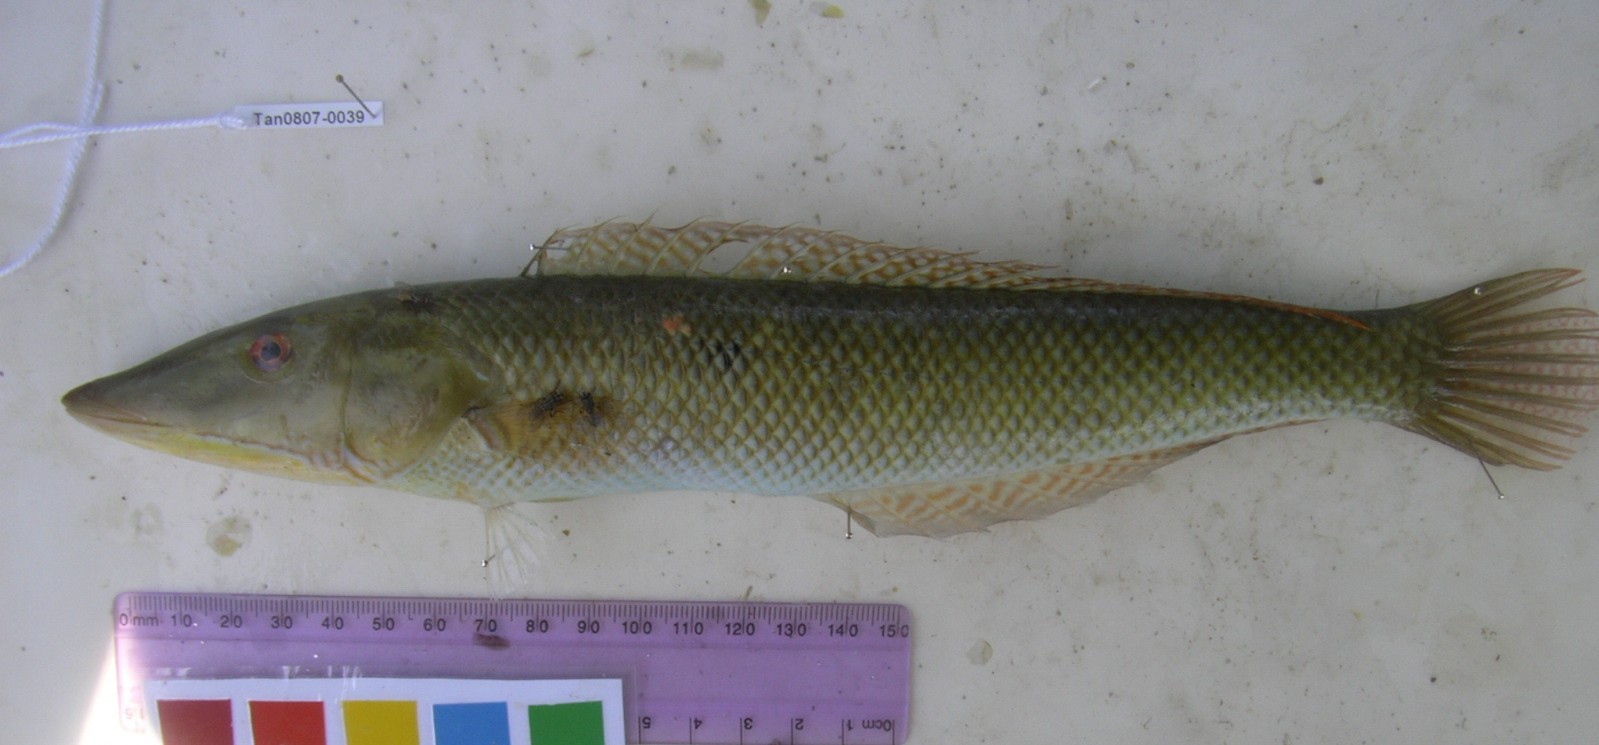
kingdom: Animalia
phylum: Chordata
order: Perciformes
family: Labridae
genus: Cheilio
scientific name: Cheilio inermis
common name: Cigar wrasse
